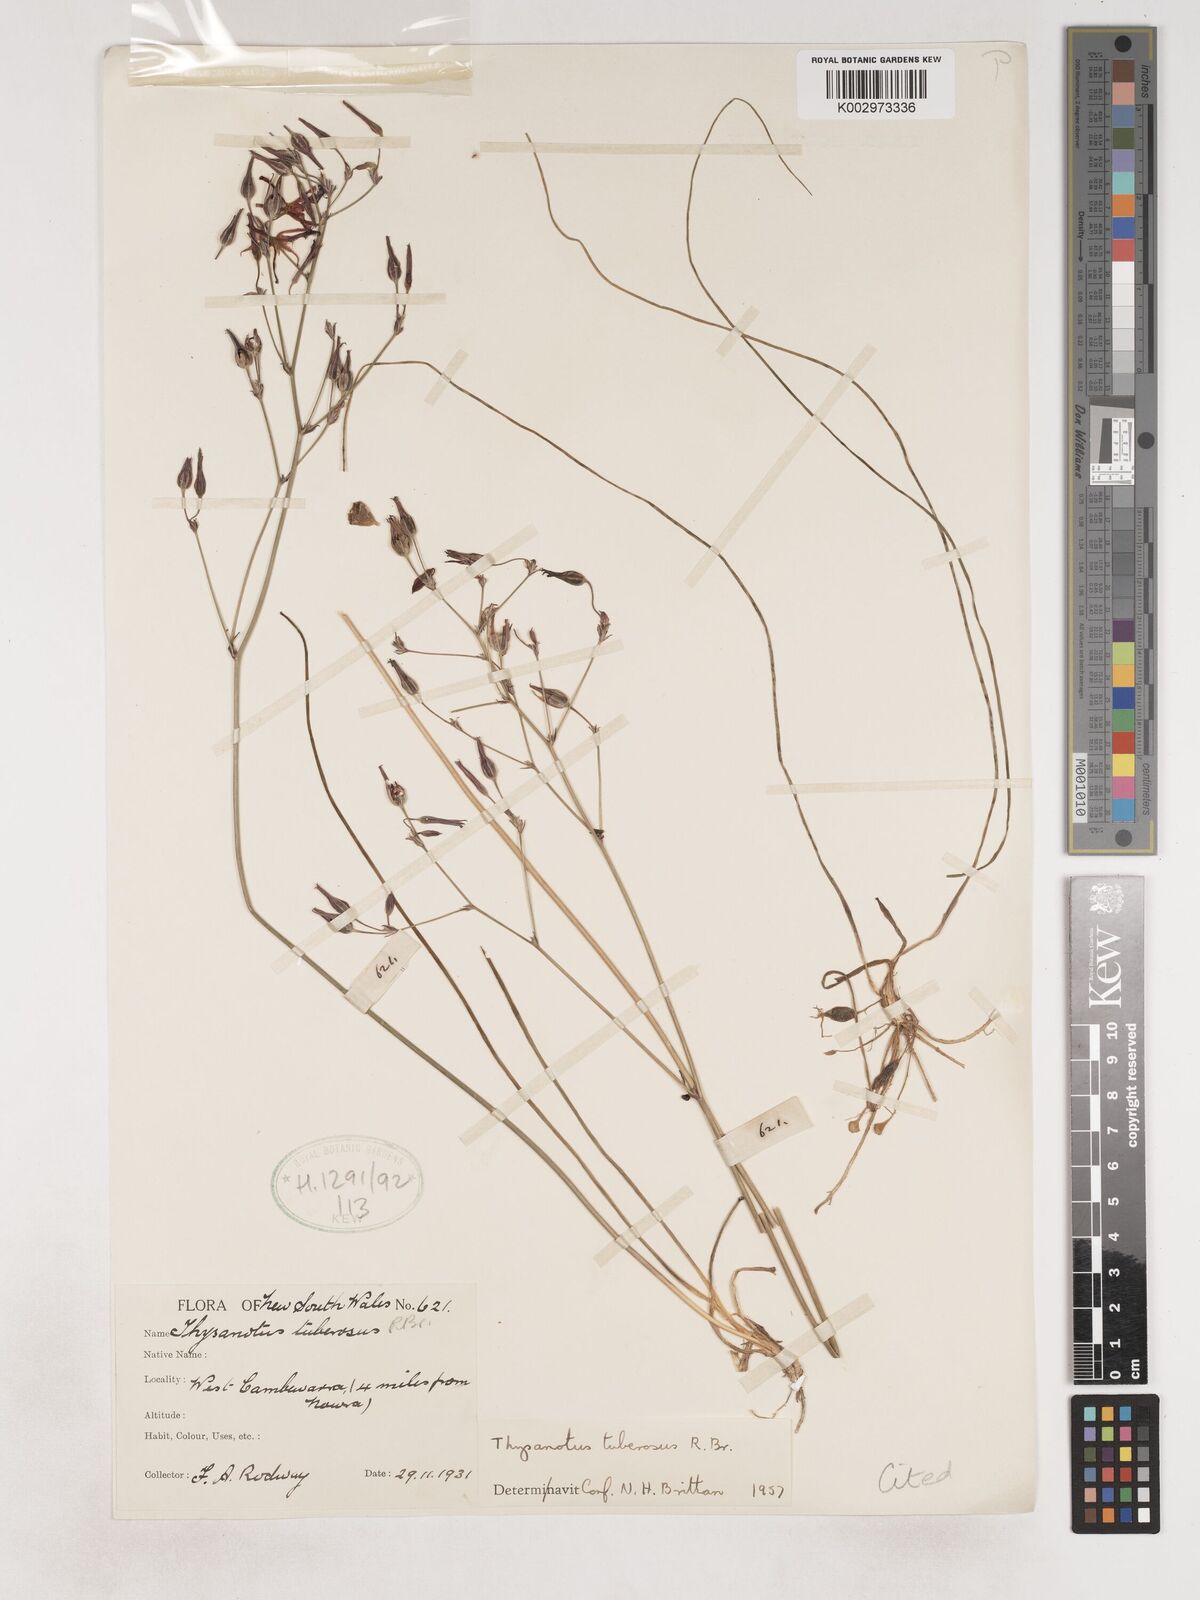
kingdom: Plantae
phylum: Tracheophyta
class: Liliopsida
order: Asparagales
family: Asparagaceae
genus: Thysanotus
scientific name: Thysanotus tuberosus
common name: Common fringed-lily
